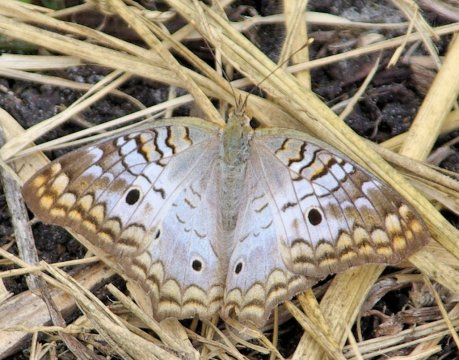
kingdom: Animalia
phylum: Arthropoda
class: Insecta
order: Lepidoptera
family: Nymphalidae
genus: Anartia
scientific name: Anartia jatrophae
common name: White Peacock
